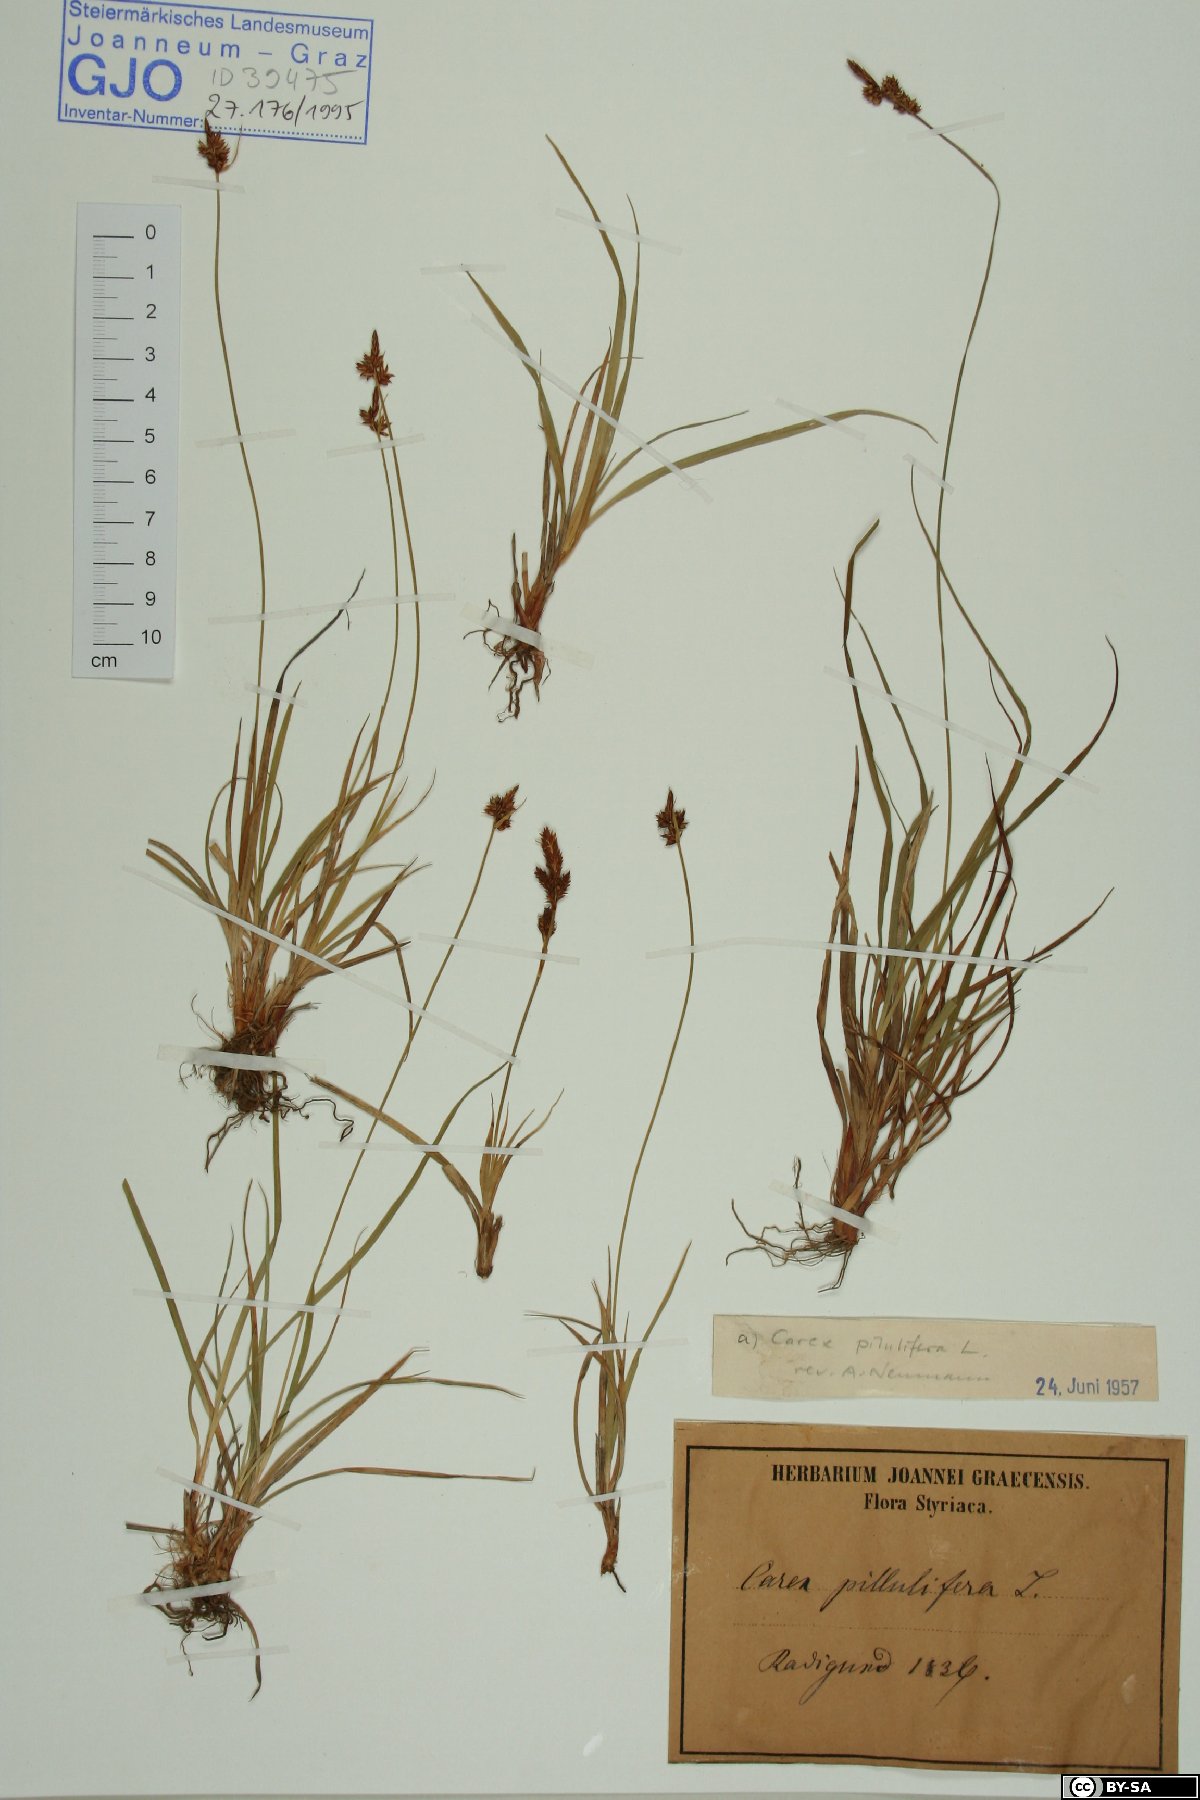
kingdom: Plantae
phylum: Tracheophyta
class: Liliopsida
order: Poales
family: Cyperaceae
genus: Carex
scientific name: Carex pilulifera
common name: Pill sedge
